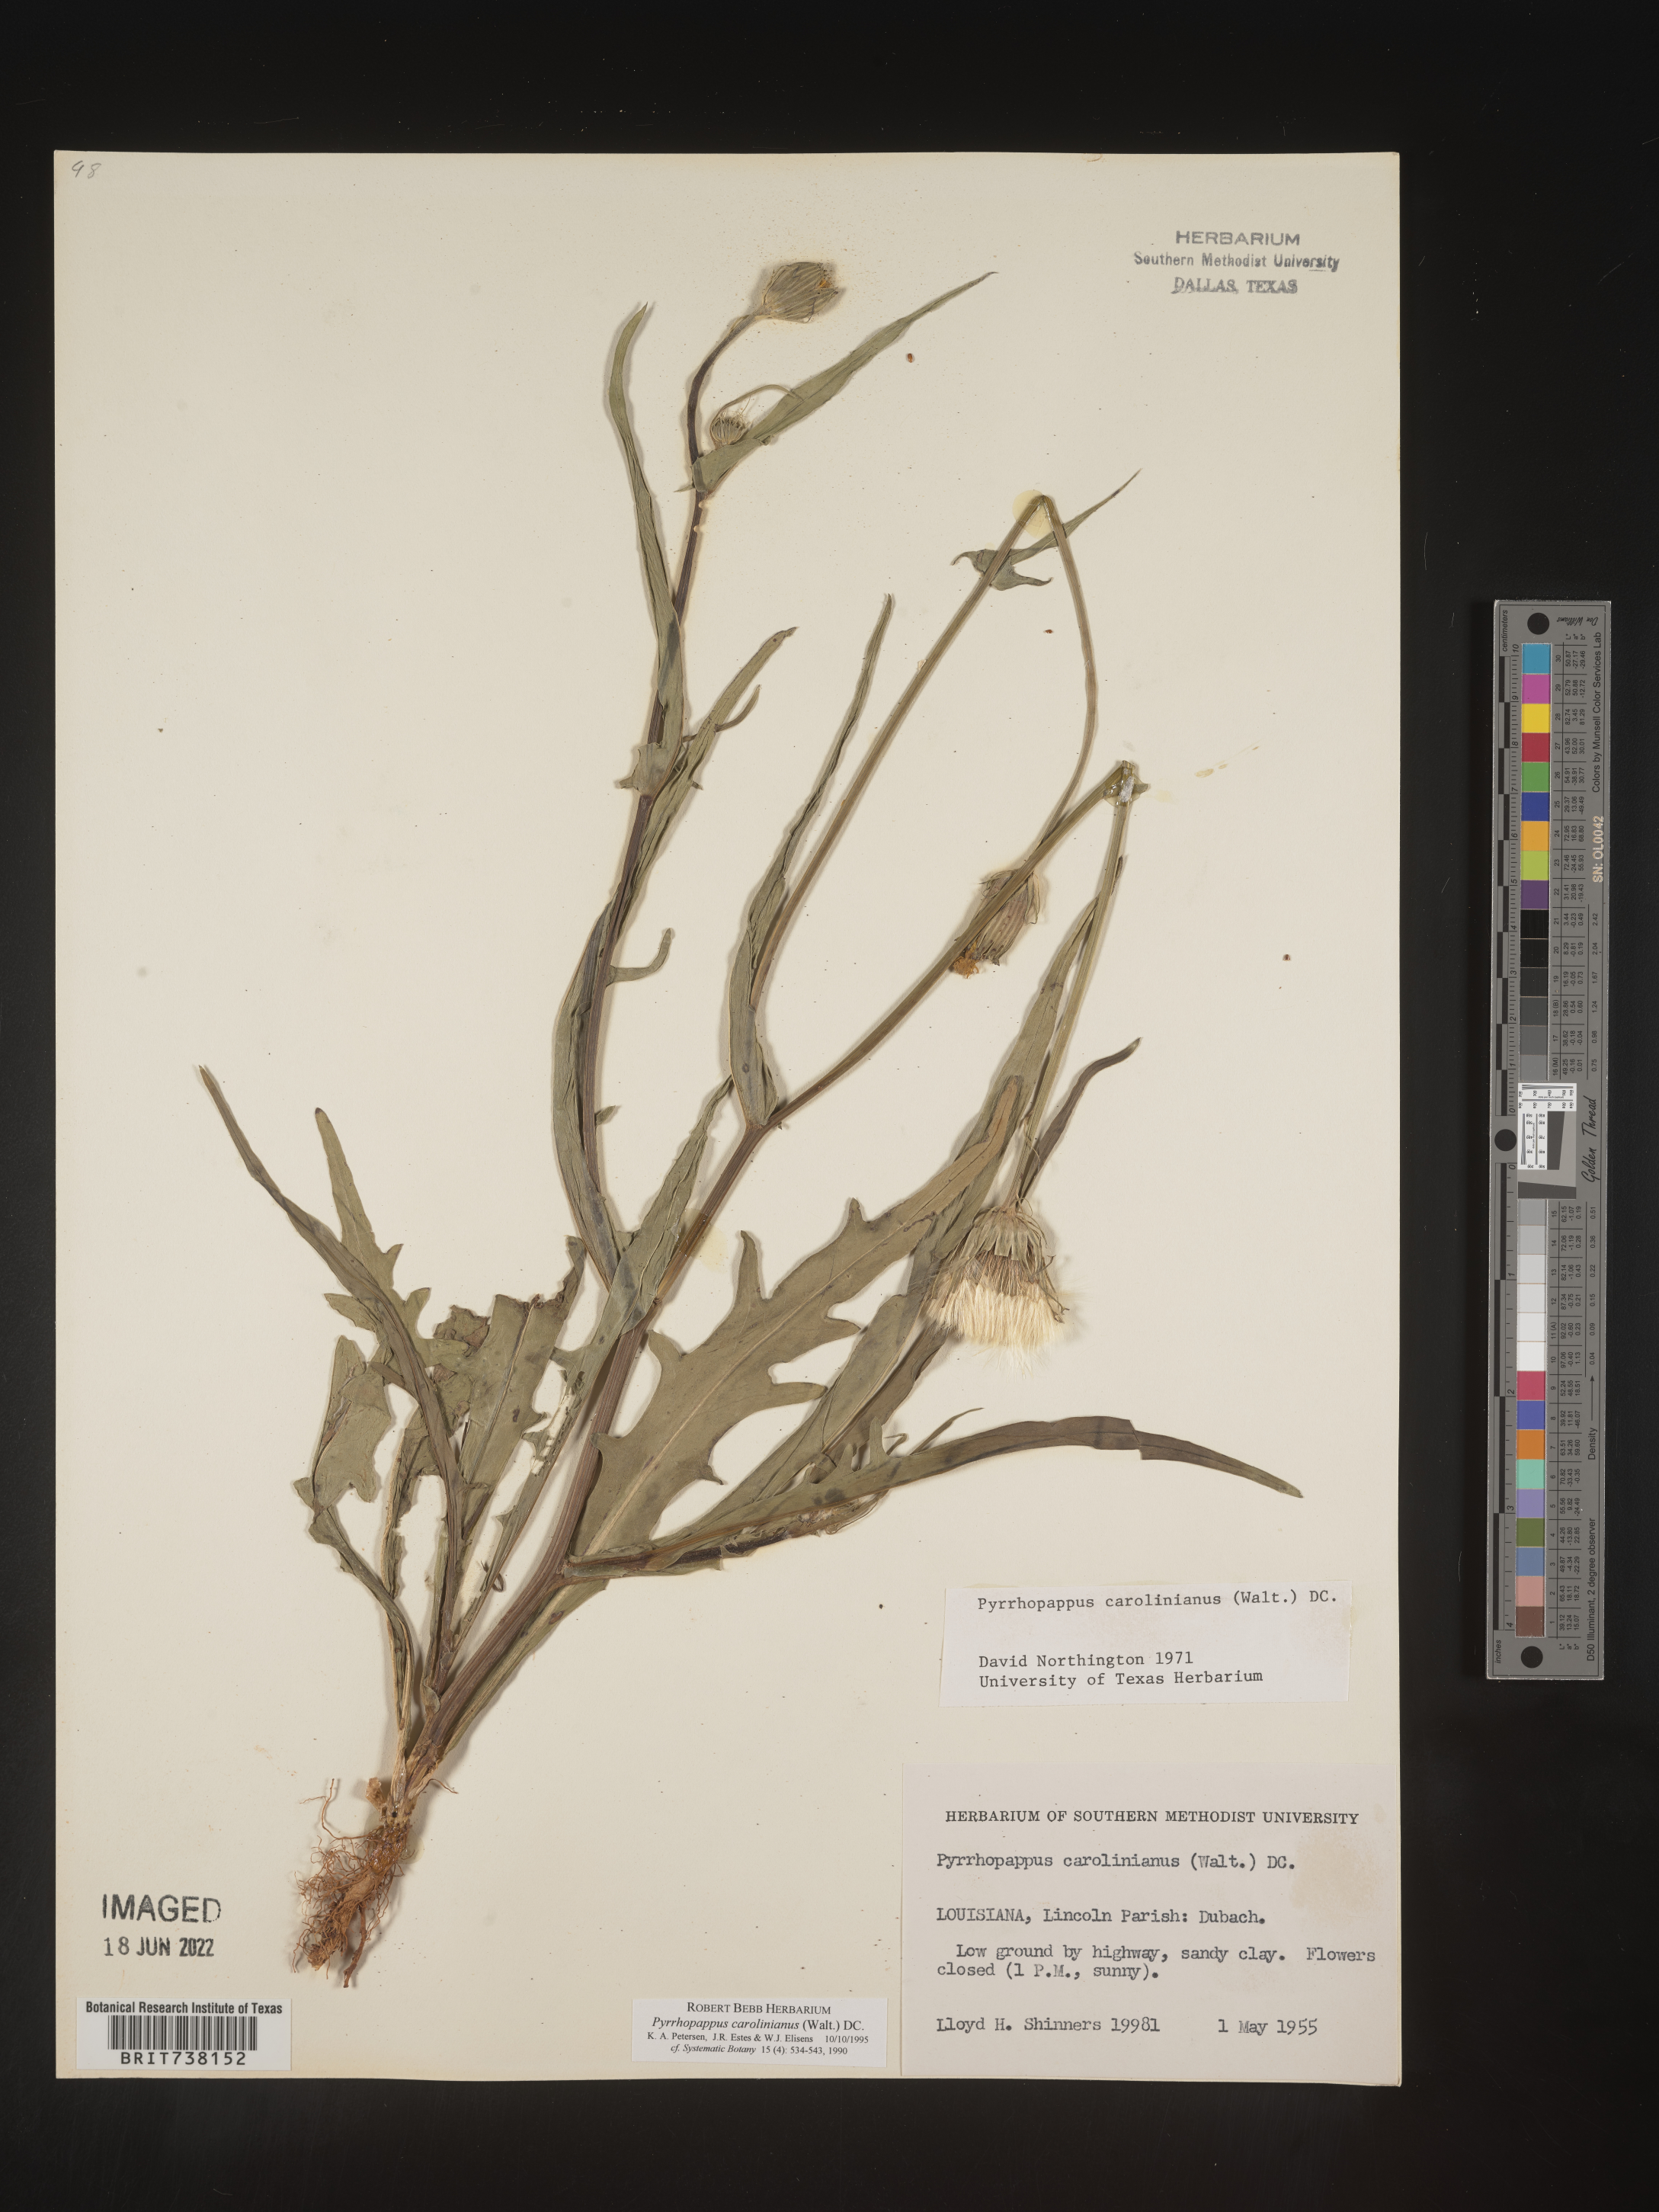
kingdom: Plantae
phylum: Tracheophyta
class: Magnoliopsida
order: Asterales
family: Asteraceae
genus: Pyrrhopappus
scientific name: Pyrrhopappus carolinianus
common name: Carolina desert-chicory
